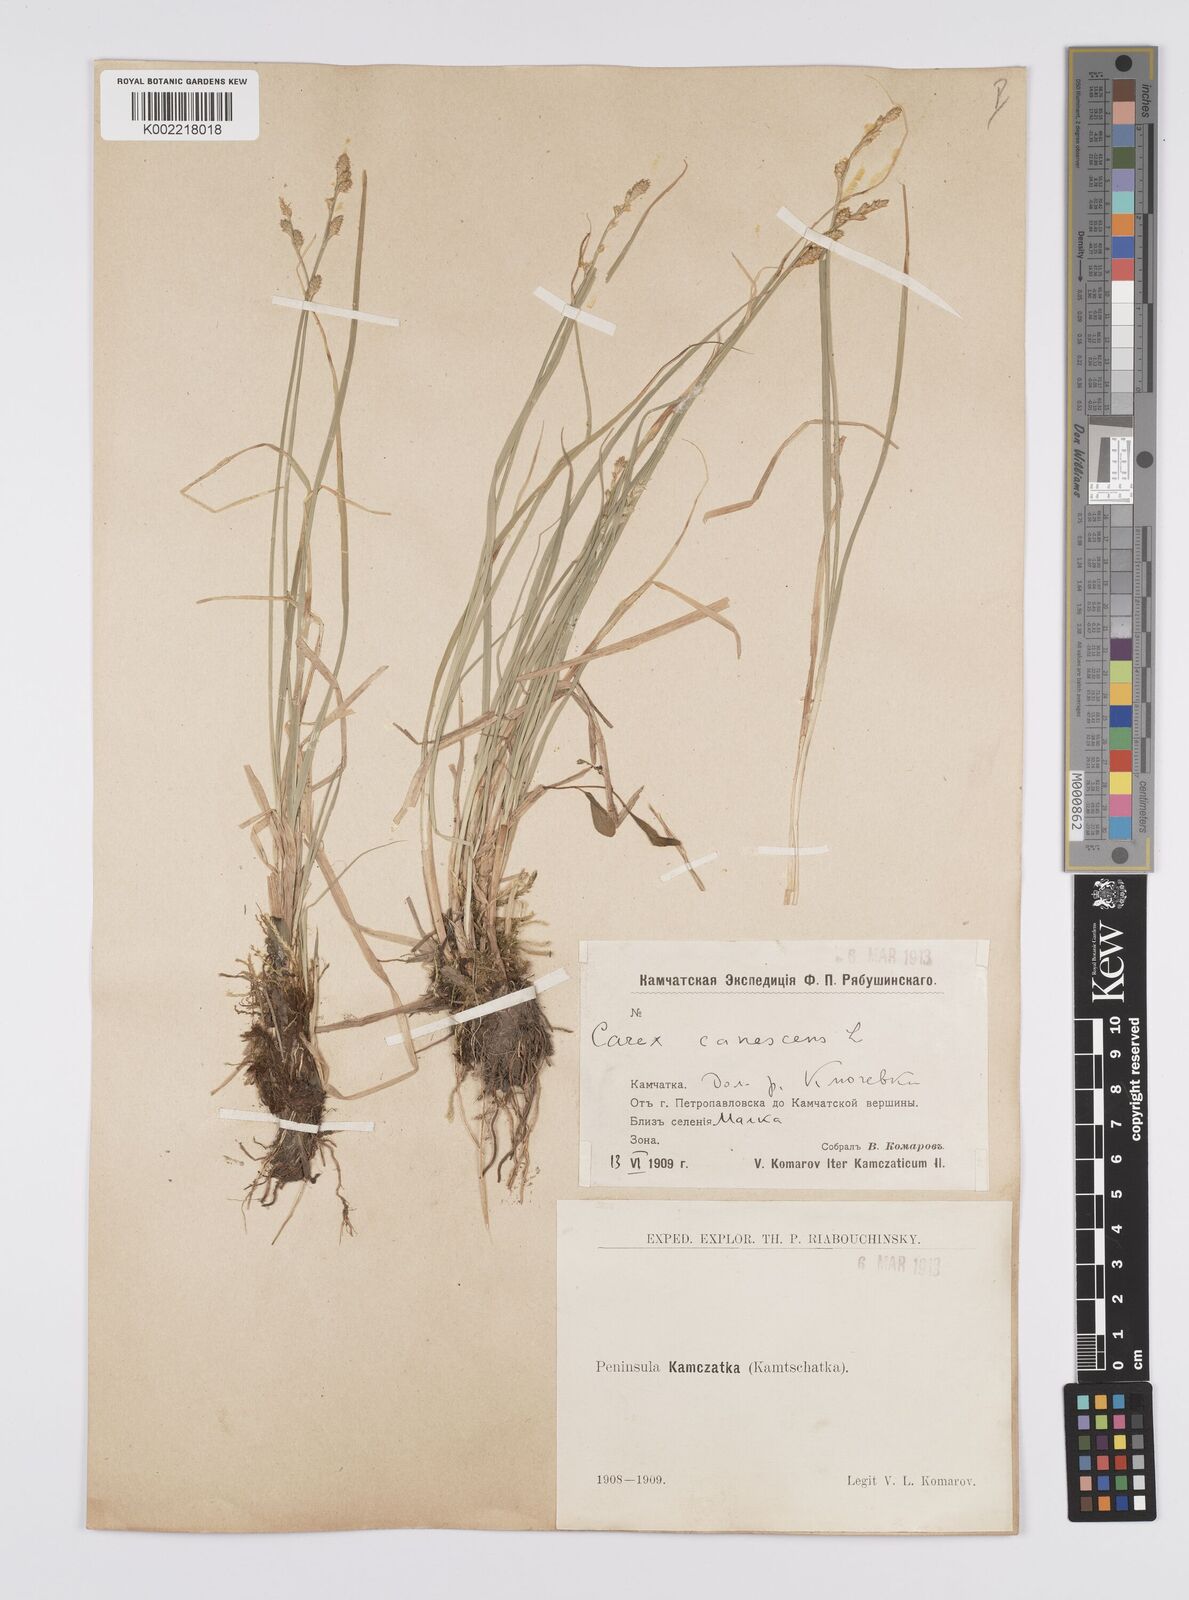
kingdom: Plantae
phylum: Tracheophyta
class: Liliopsida
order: Poales
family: Cyperaceae
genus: Carex
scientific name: Carex canescens
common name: White sedge
